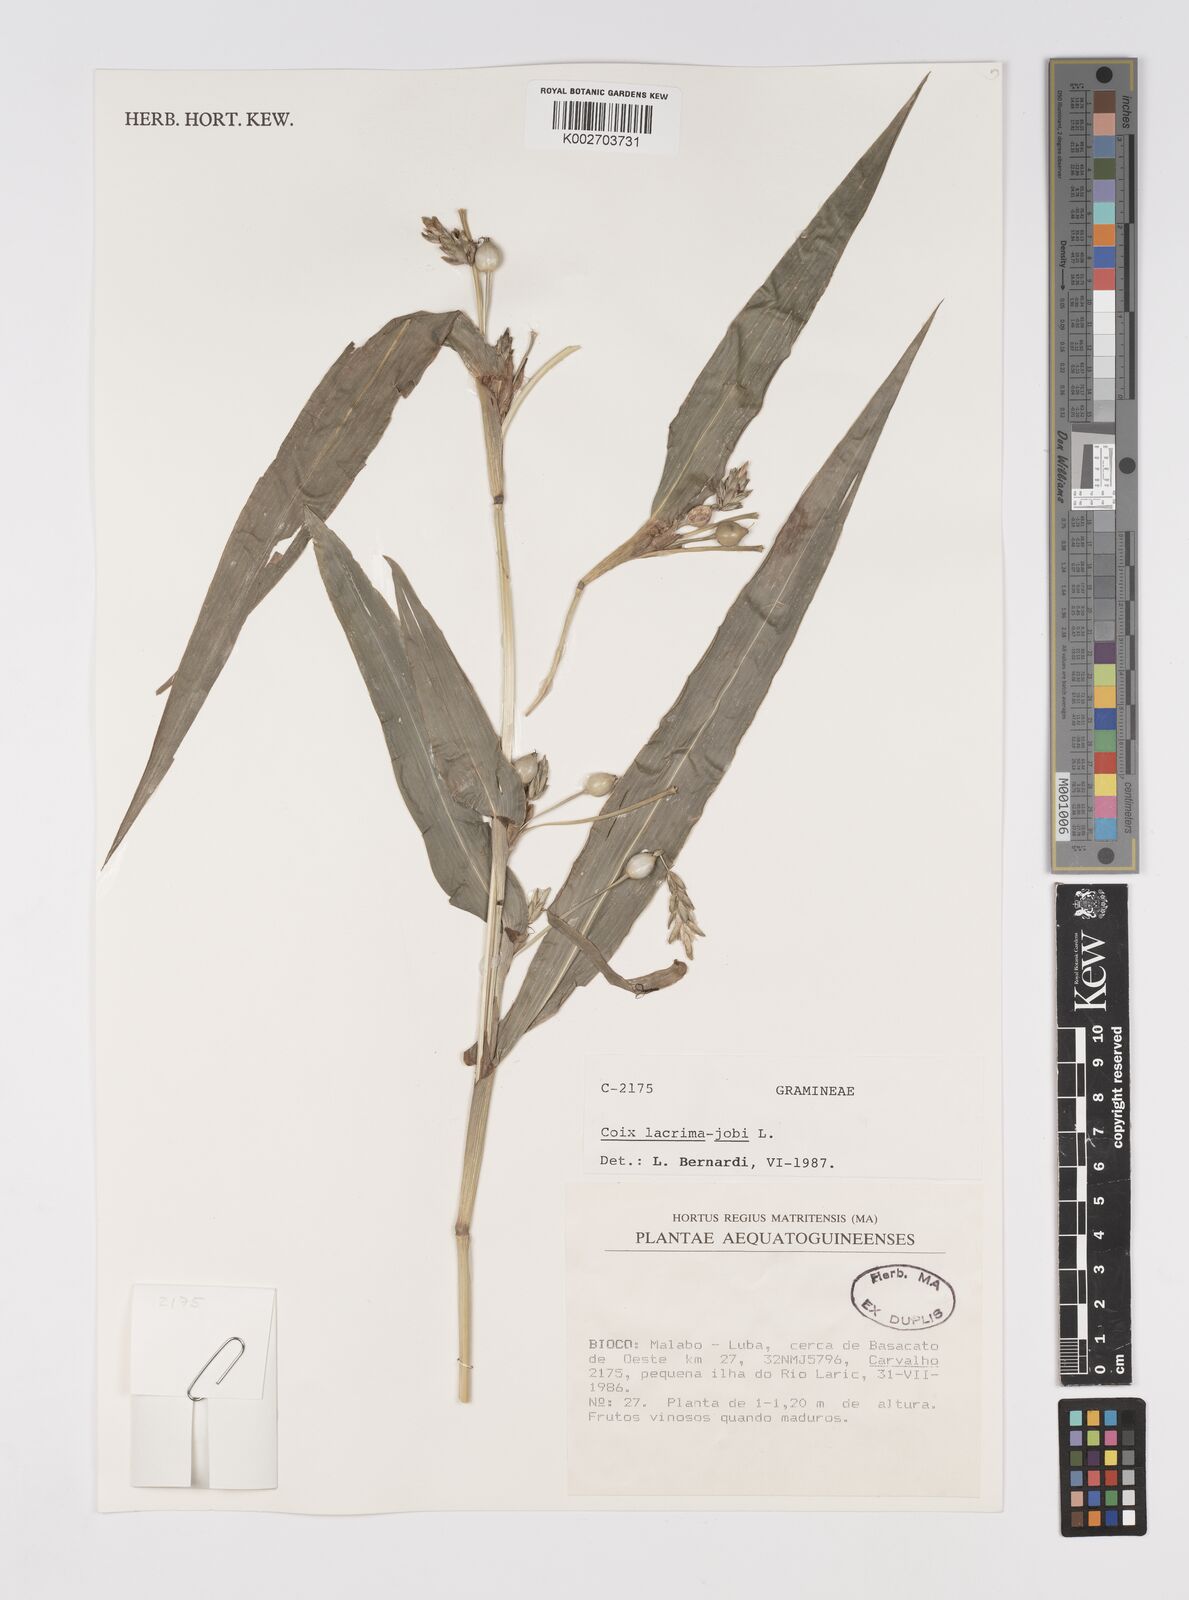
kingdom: Plantae
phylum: Tracheophyta
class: Liliopsida
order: Poales
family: Poaceae
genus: Coix
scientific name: Coix lacryma-jobi
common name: Job's tears
